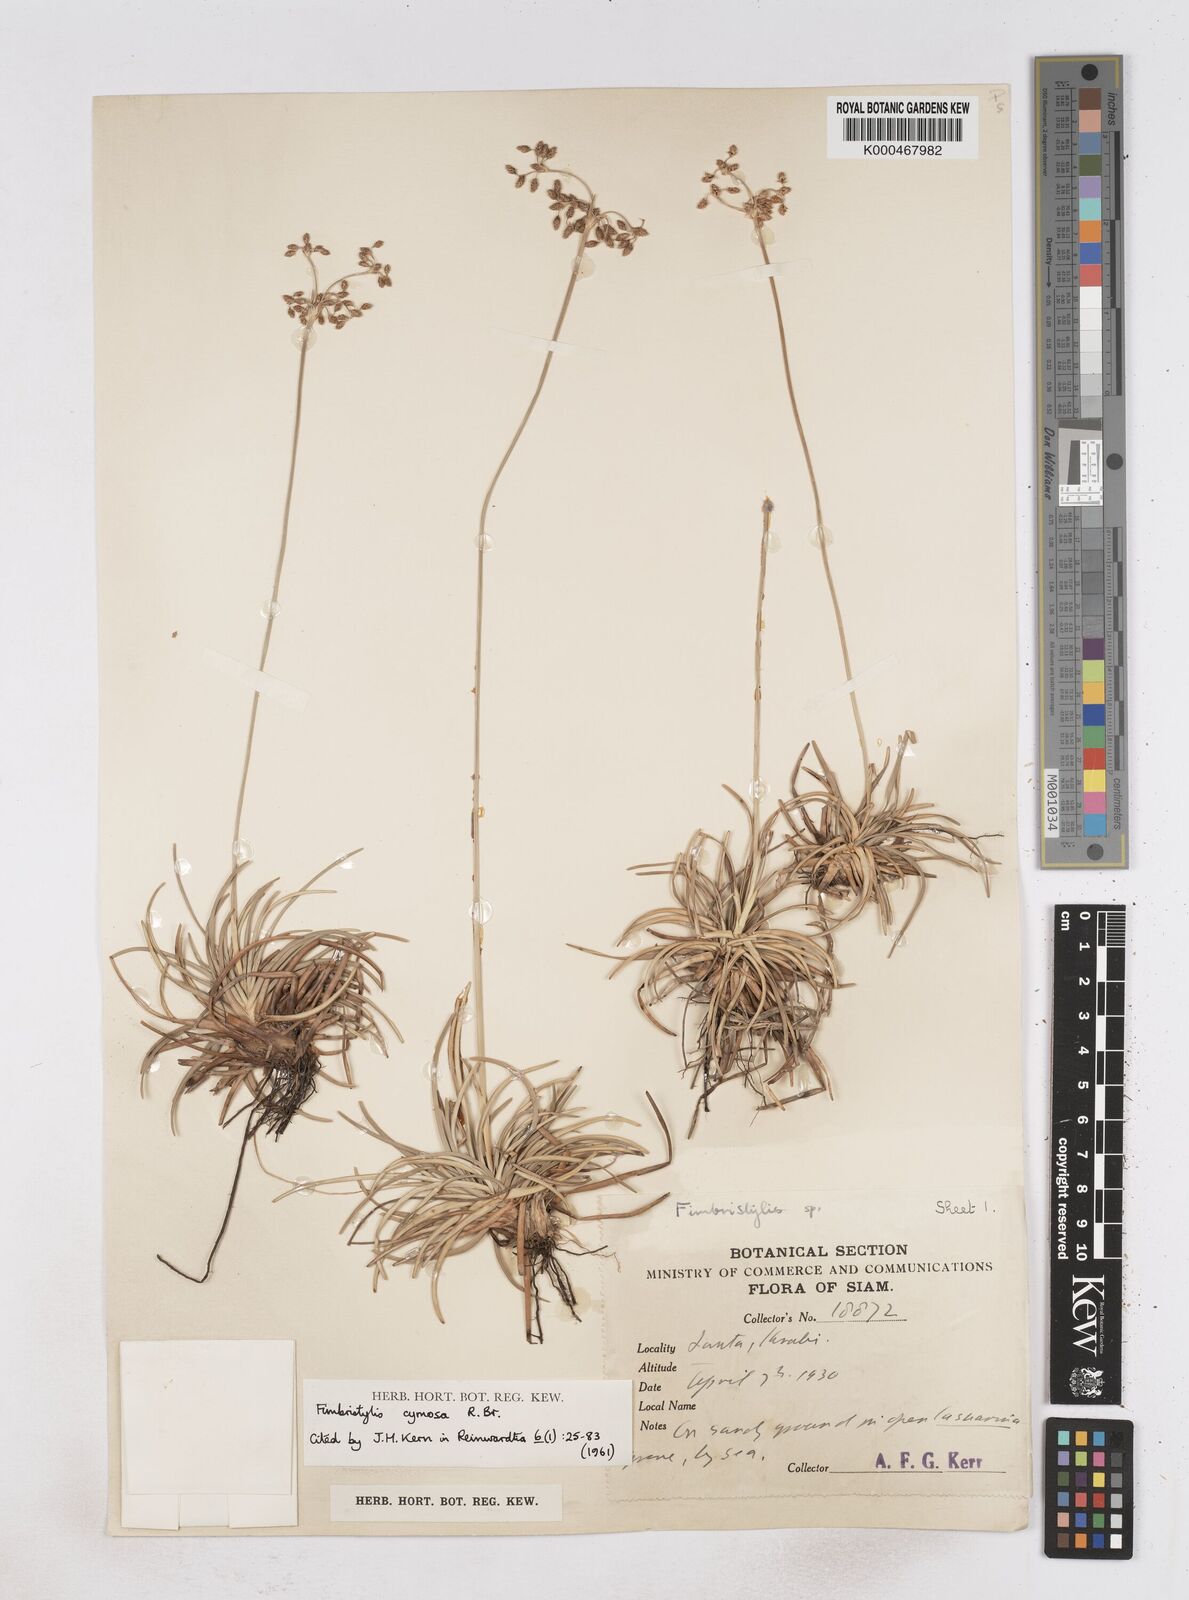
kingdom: Plantae
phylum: Tracheophyta
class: Liliopsida
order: Poales
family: Cyperaceae
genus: Fimbristylis
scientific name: Fimbristylis cymosa
